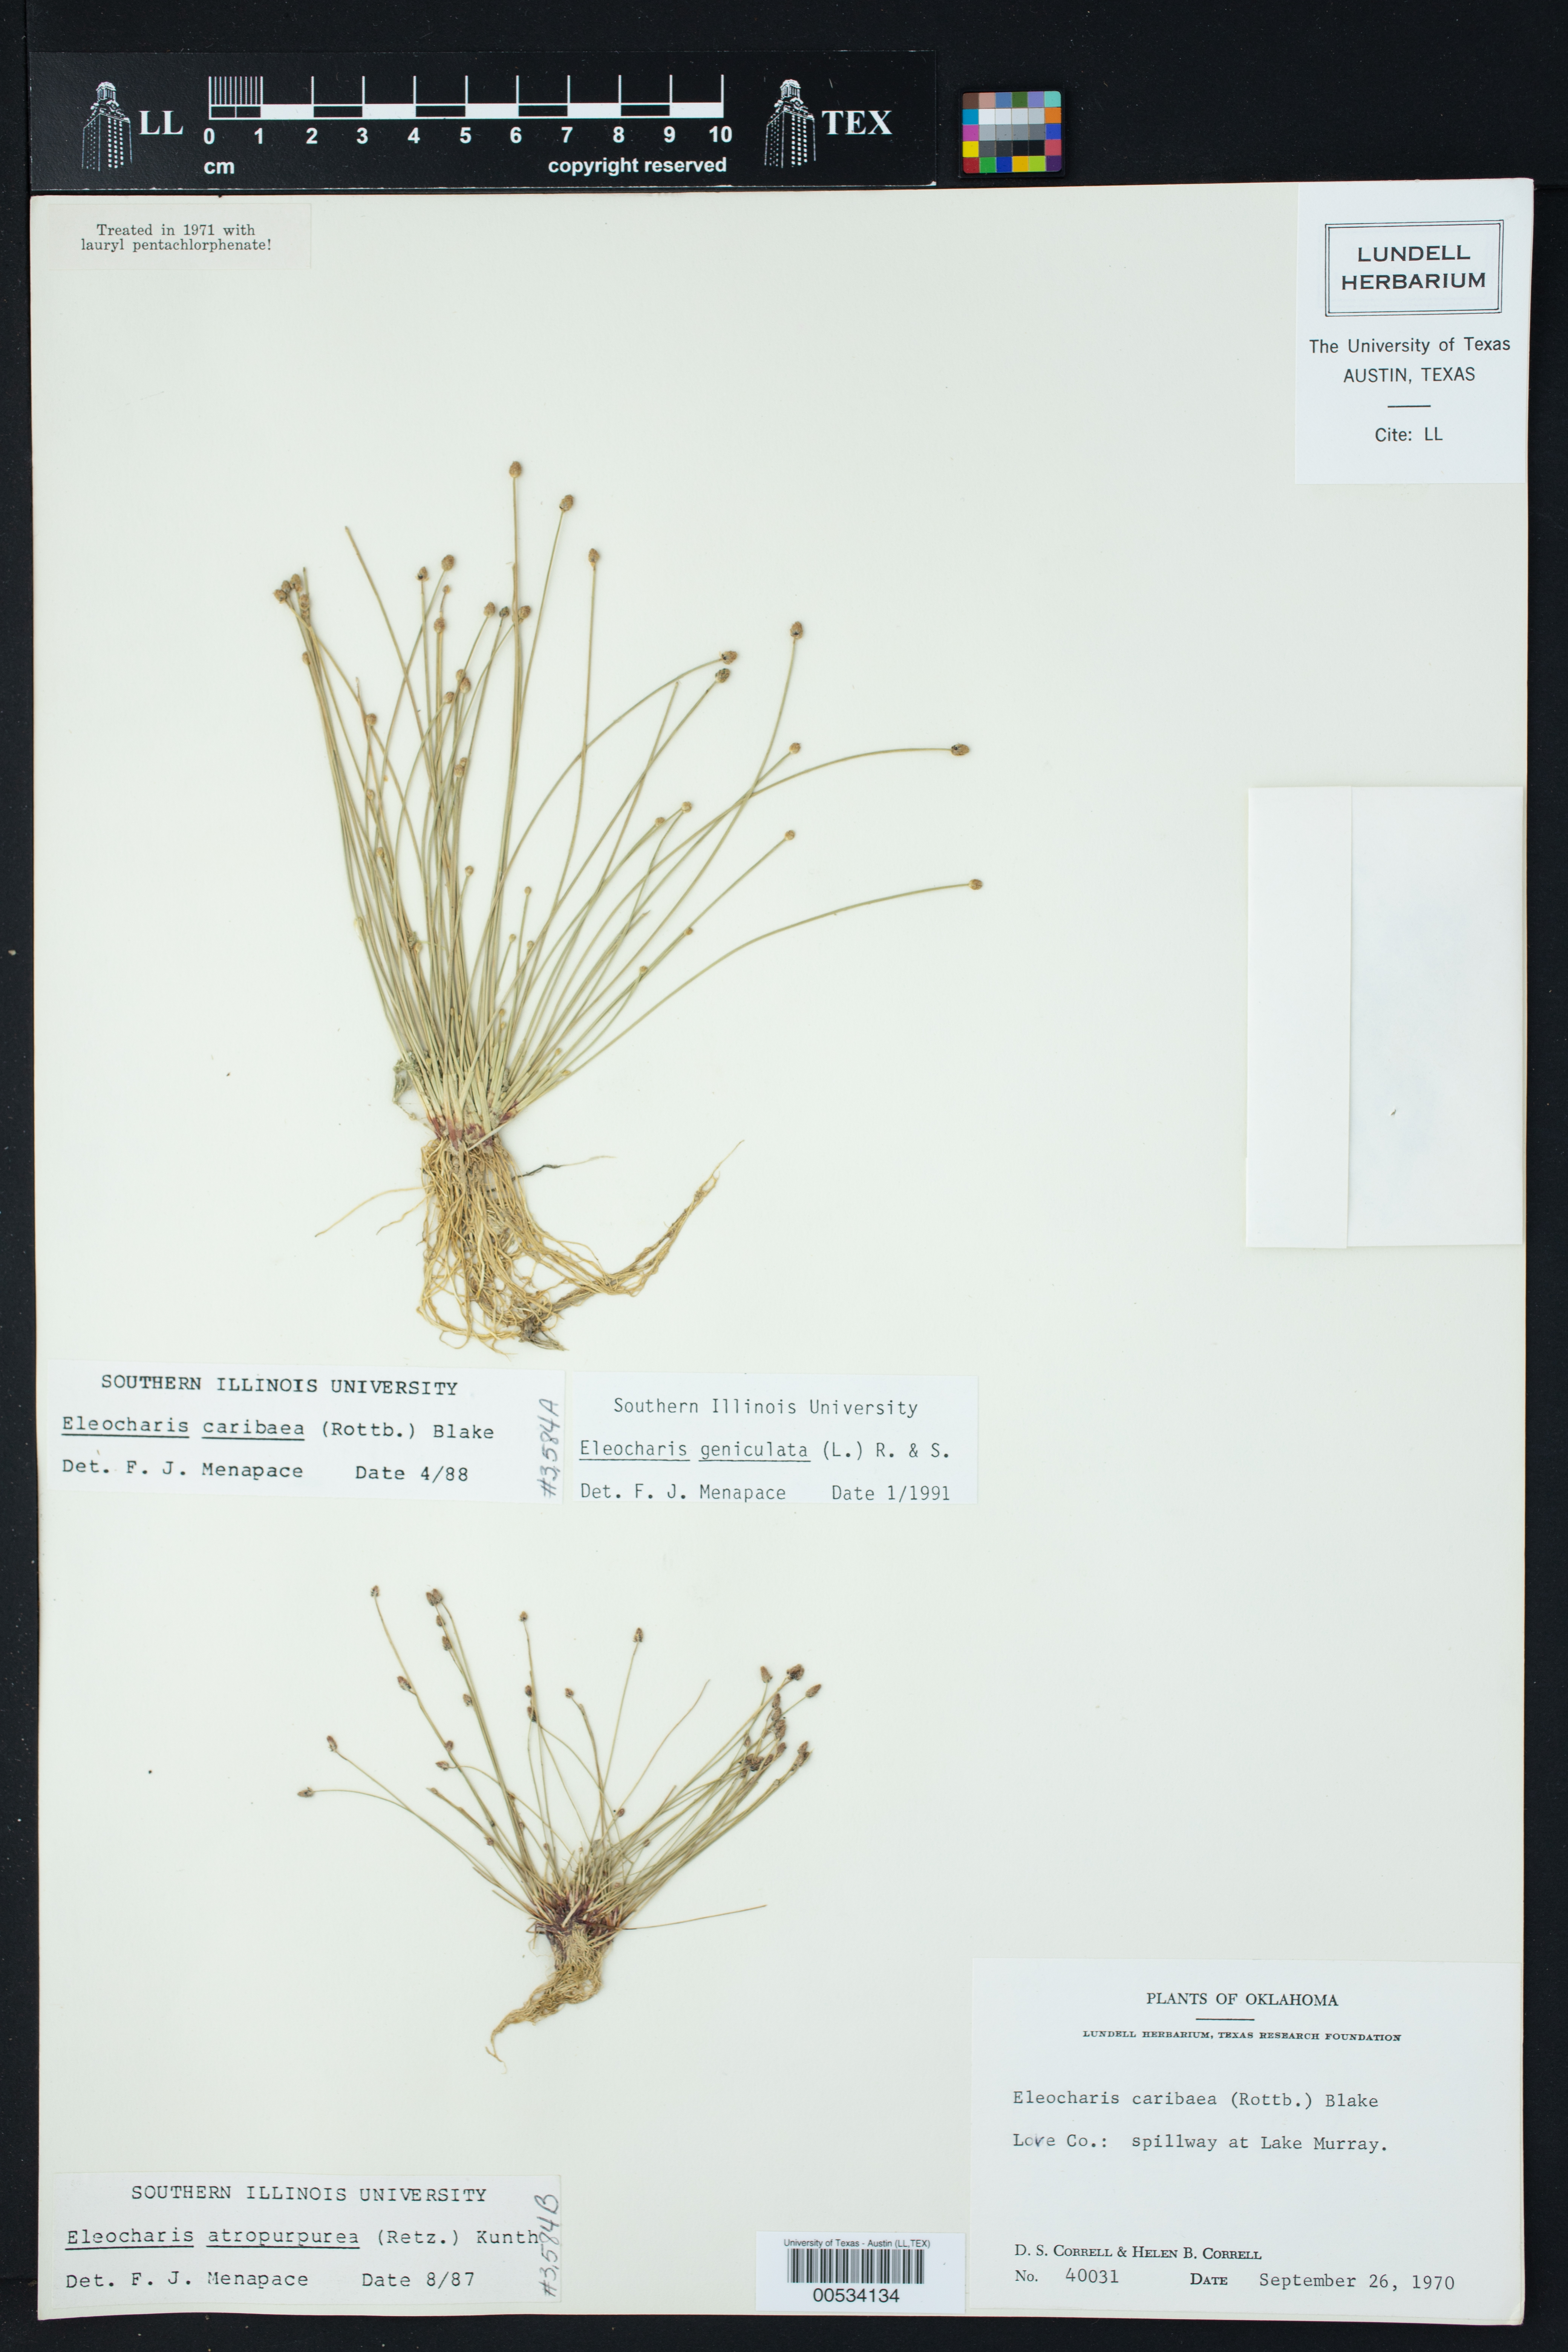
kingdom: Plantae
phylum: Tracheophyta
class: Liliopsida
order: Poales
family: Cyperaceae
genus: Eleocharis
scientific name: Eleocharis geniculata
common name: Canada spikesedge
